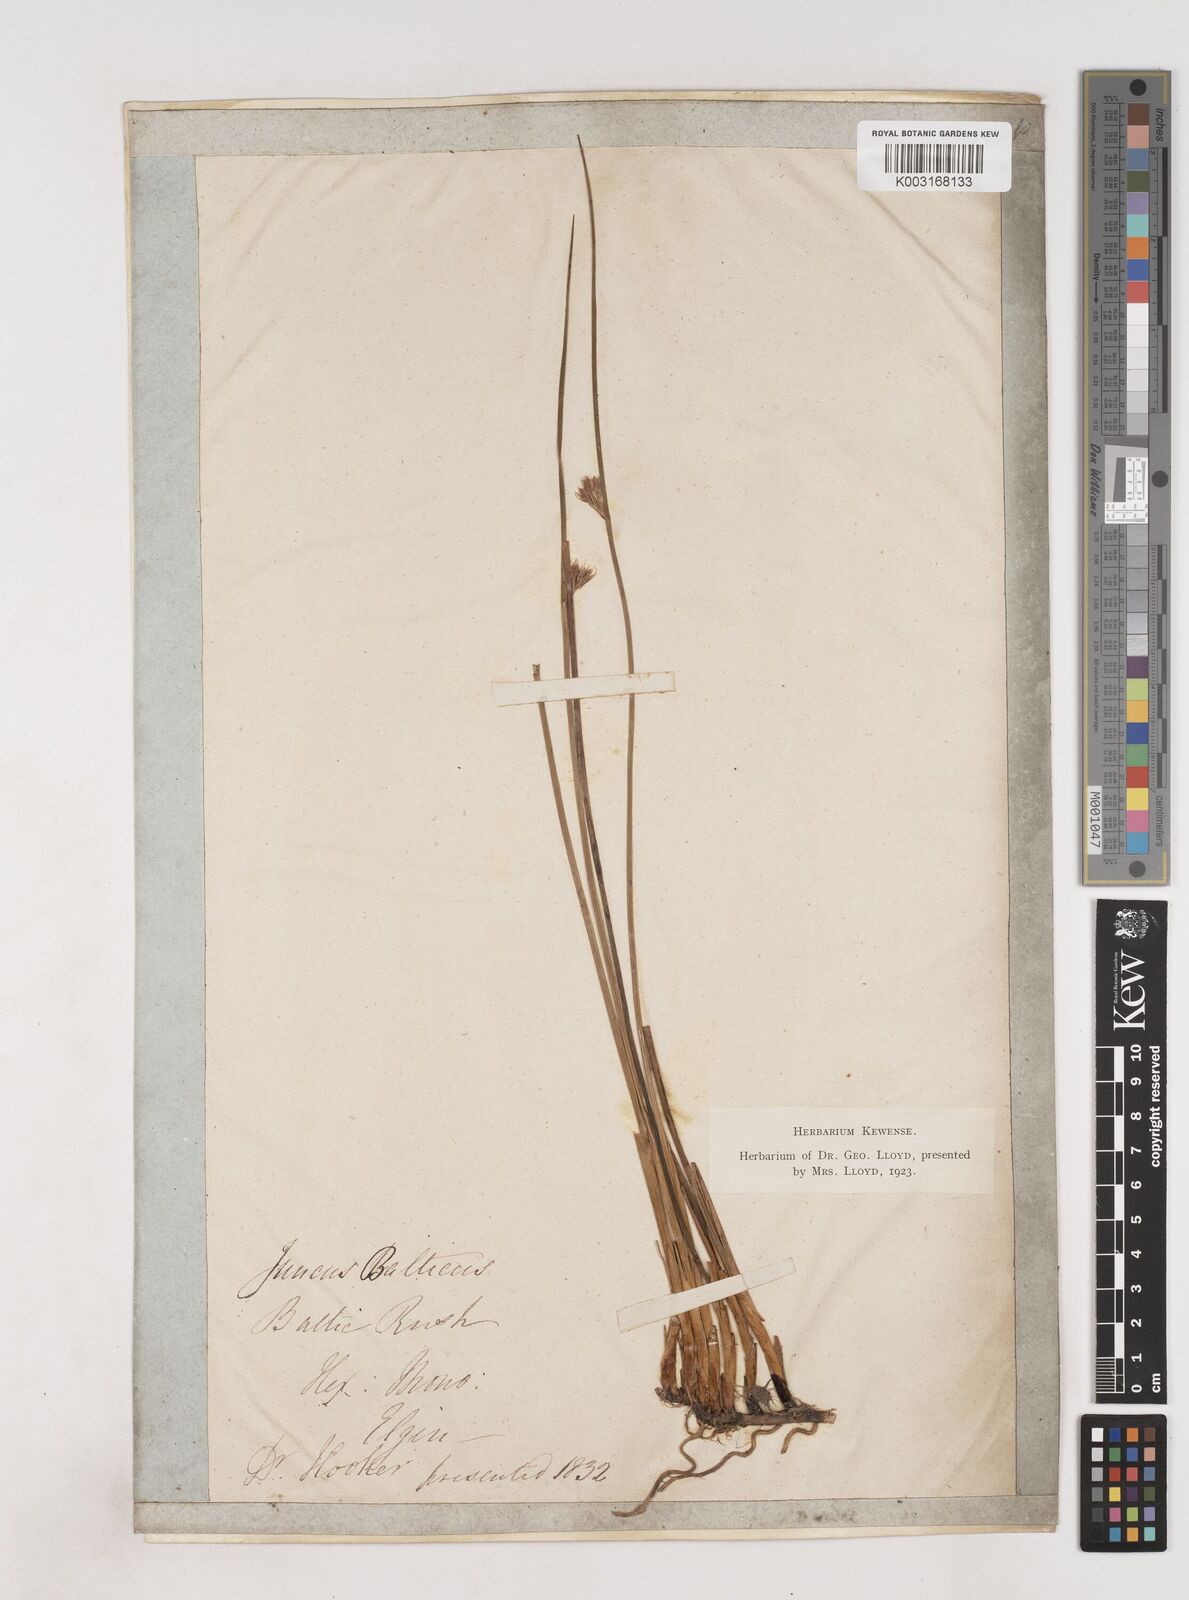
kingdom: Plantae
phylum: Tracheophyta
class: Liliopsida
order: Poales
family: Juncaceae
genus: Juncus
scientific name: Juncus balticus
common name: Baltic rush
